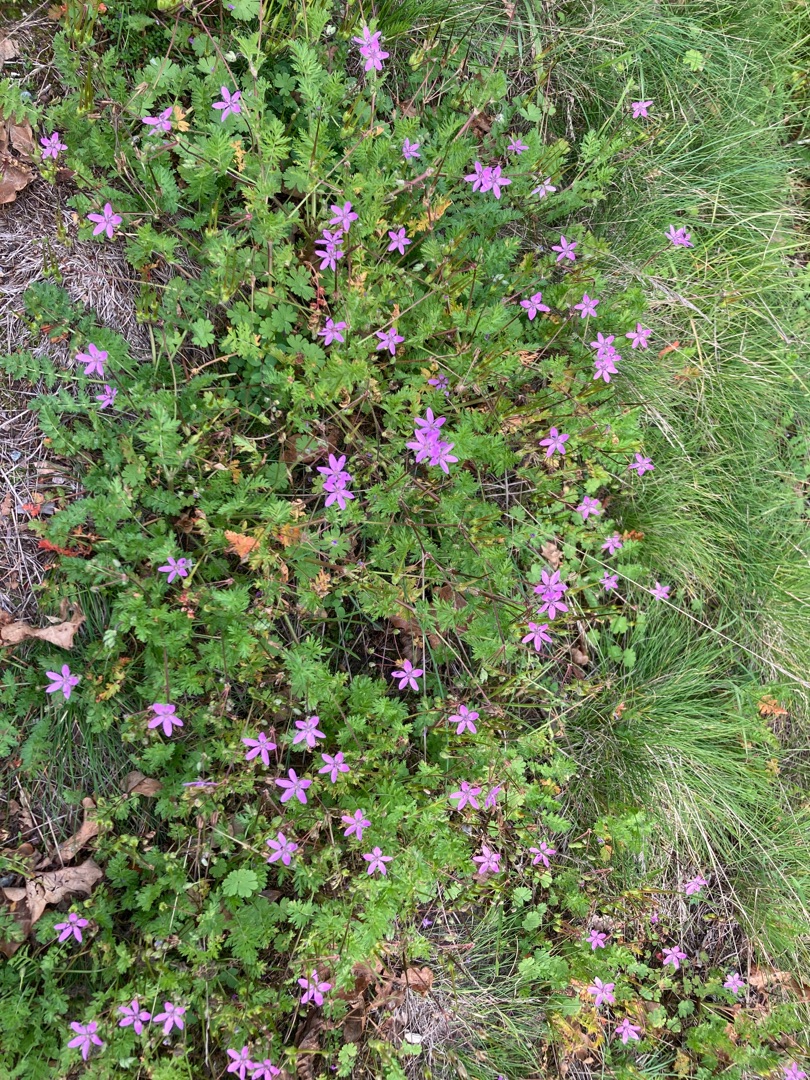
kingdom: Plantae
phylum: Tracheophyta
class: Magnoliopsida
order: Geraniales
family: Geraniaceae
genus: Erodium
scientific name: Erodium cicutarium
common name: Hejrenæb
